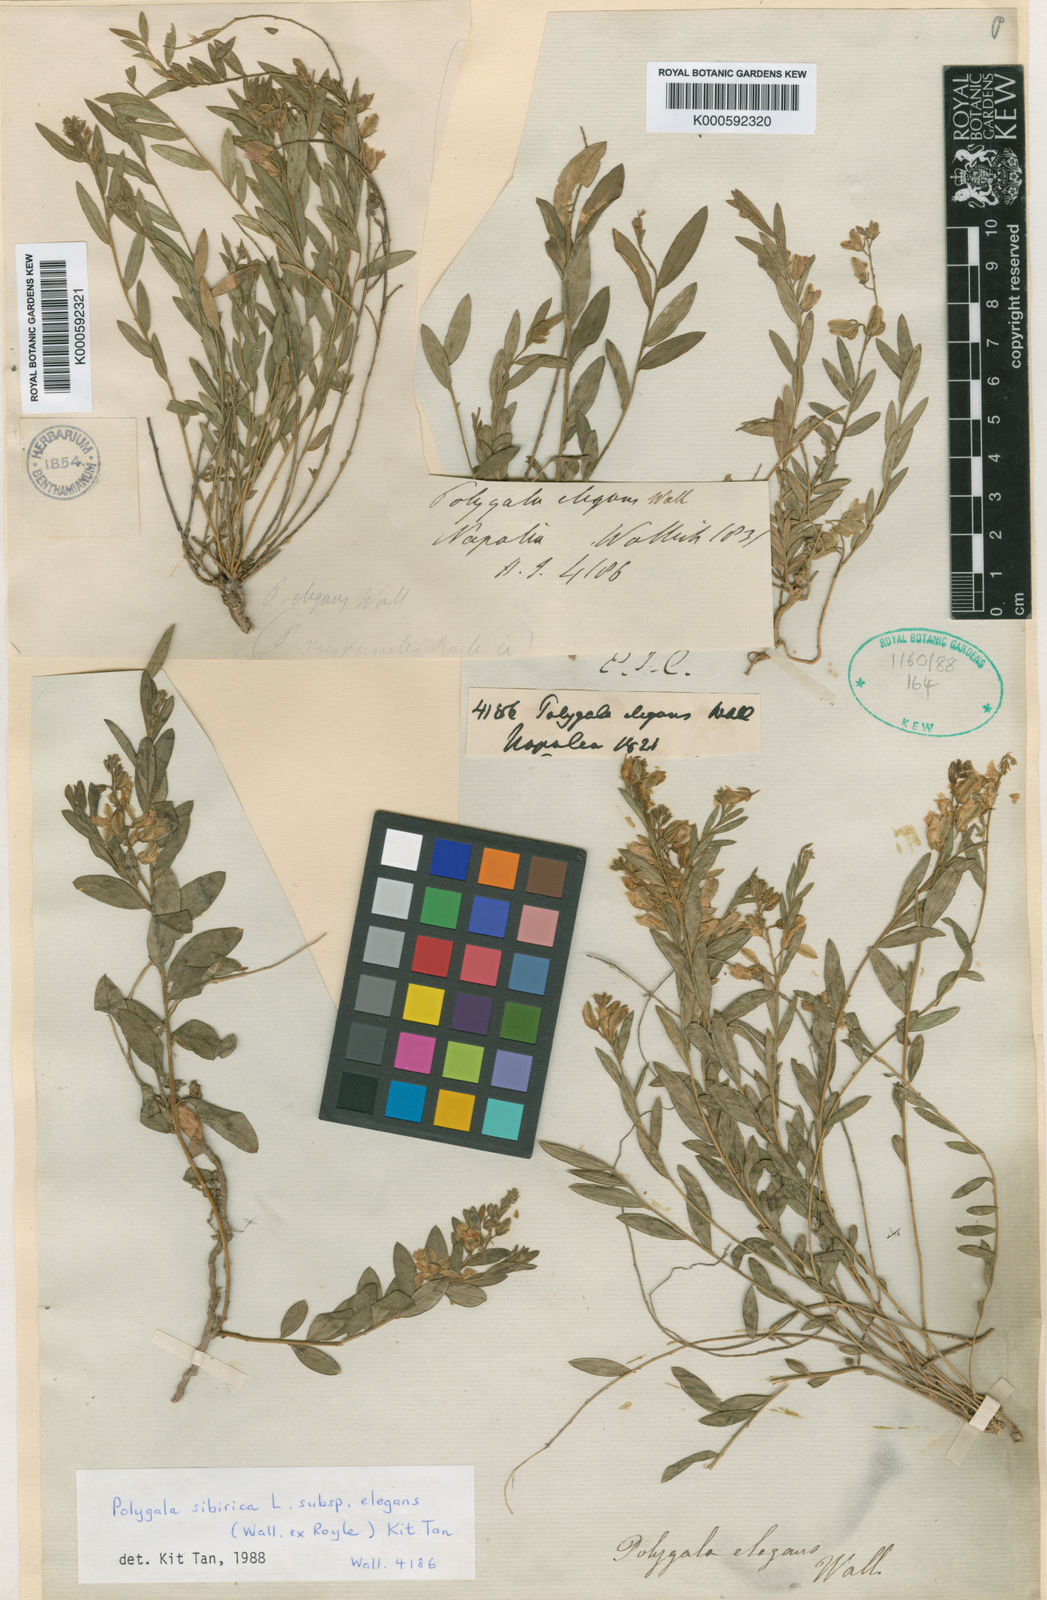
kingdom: Plantae
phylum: Tracheophyta
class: Magnoliopsida
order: Fabales
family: Polygalaceae
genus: Polygala
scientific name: Polygala sibirica
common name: Siberian polygala
